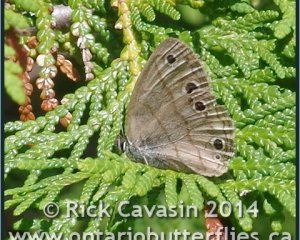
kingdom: Animalia
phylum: Arthropoda
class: Insecta
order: Lepidoptera
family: Nymphalidae
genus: Euptychia
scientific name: Euptychia cymela
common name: Little Wood Satyr
